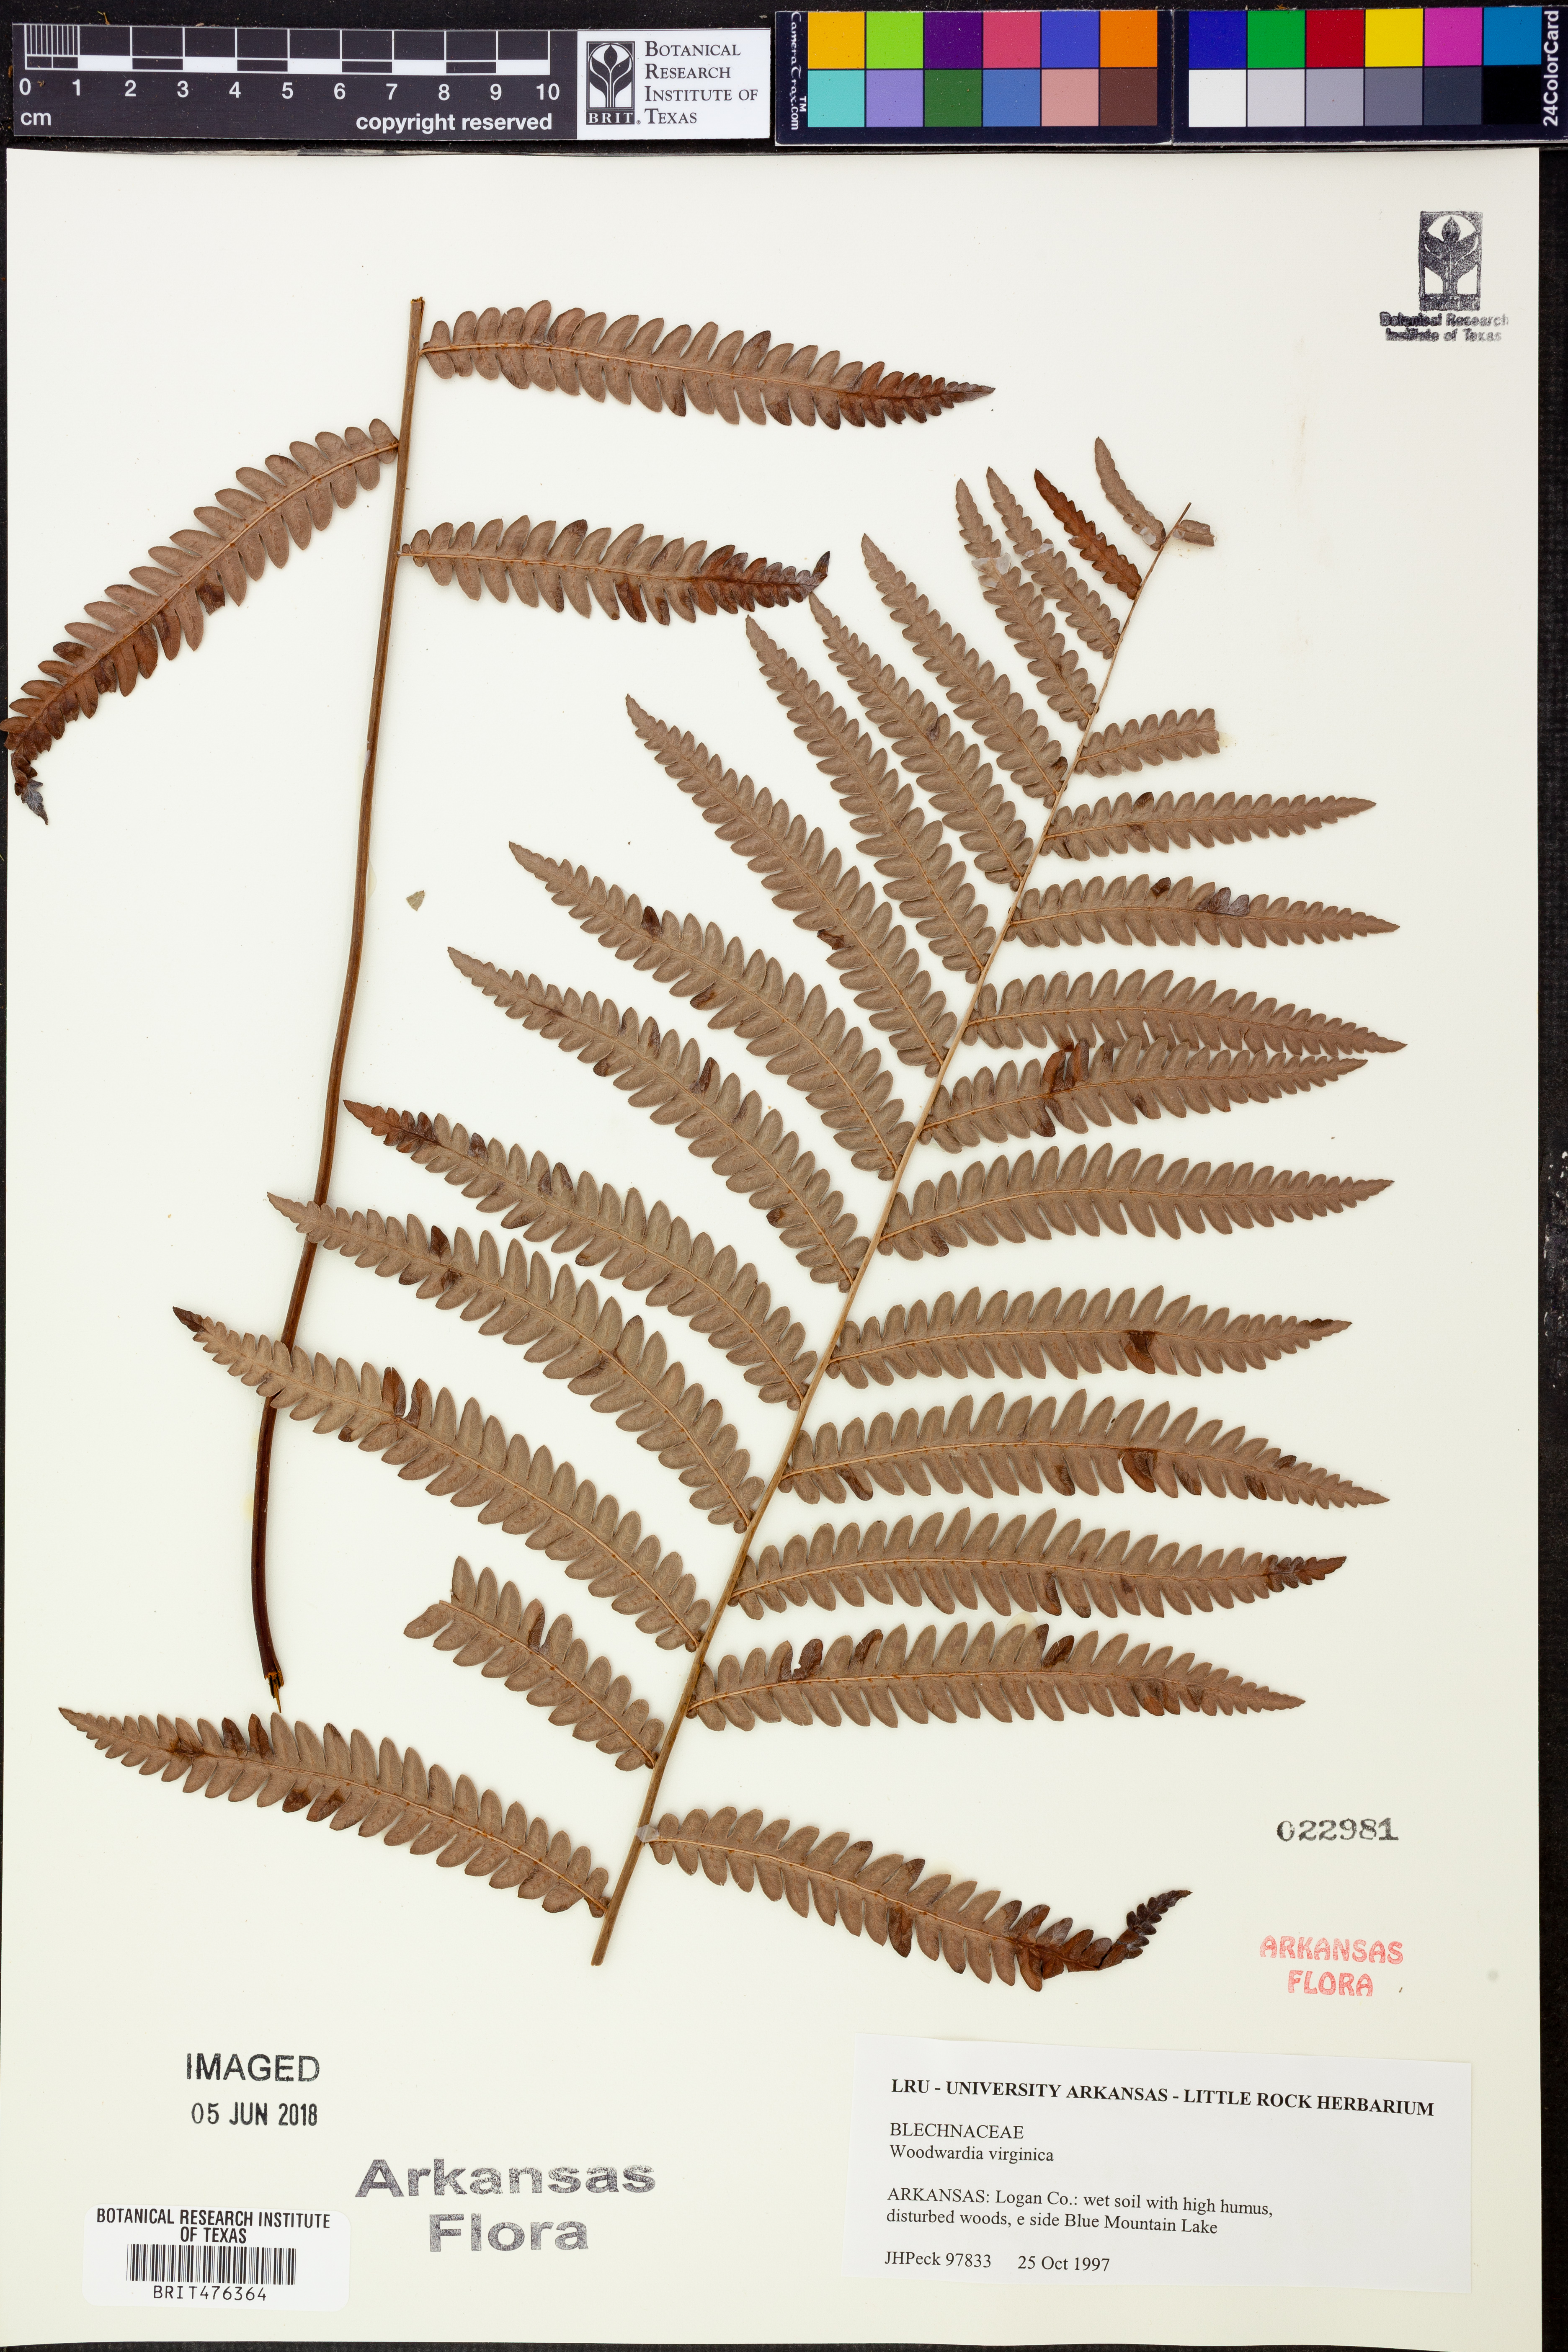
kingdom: Plantae
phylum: Tracheophyta
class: Polypodiopsida
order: Polypodiales
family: Blechnaceae
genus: Anchistea
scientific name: Anchistea virginica
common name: Virginia chain fern
